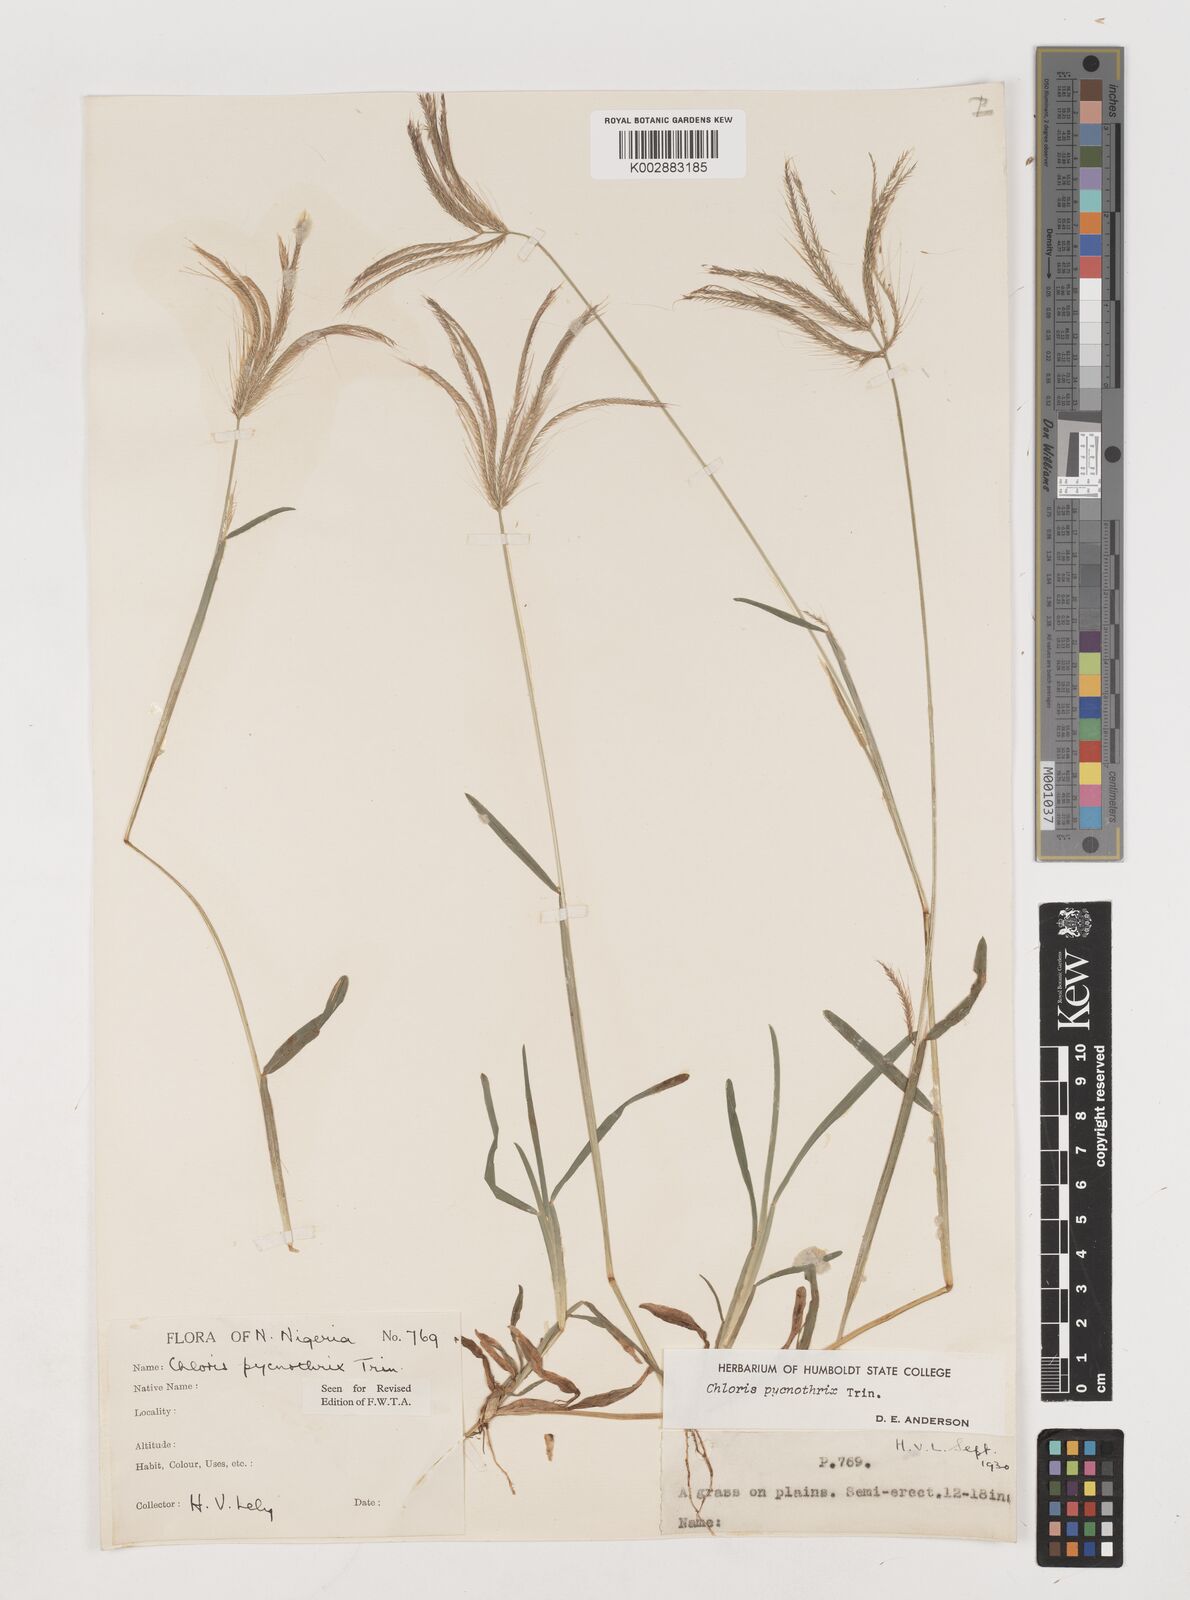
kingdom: Plantae
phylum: Tracheophyta
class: Liliopsida
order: Poales
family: Poaceae
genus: Chloris
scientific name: Chloris pycnothrix
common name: Spiderweb chloris
